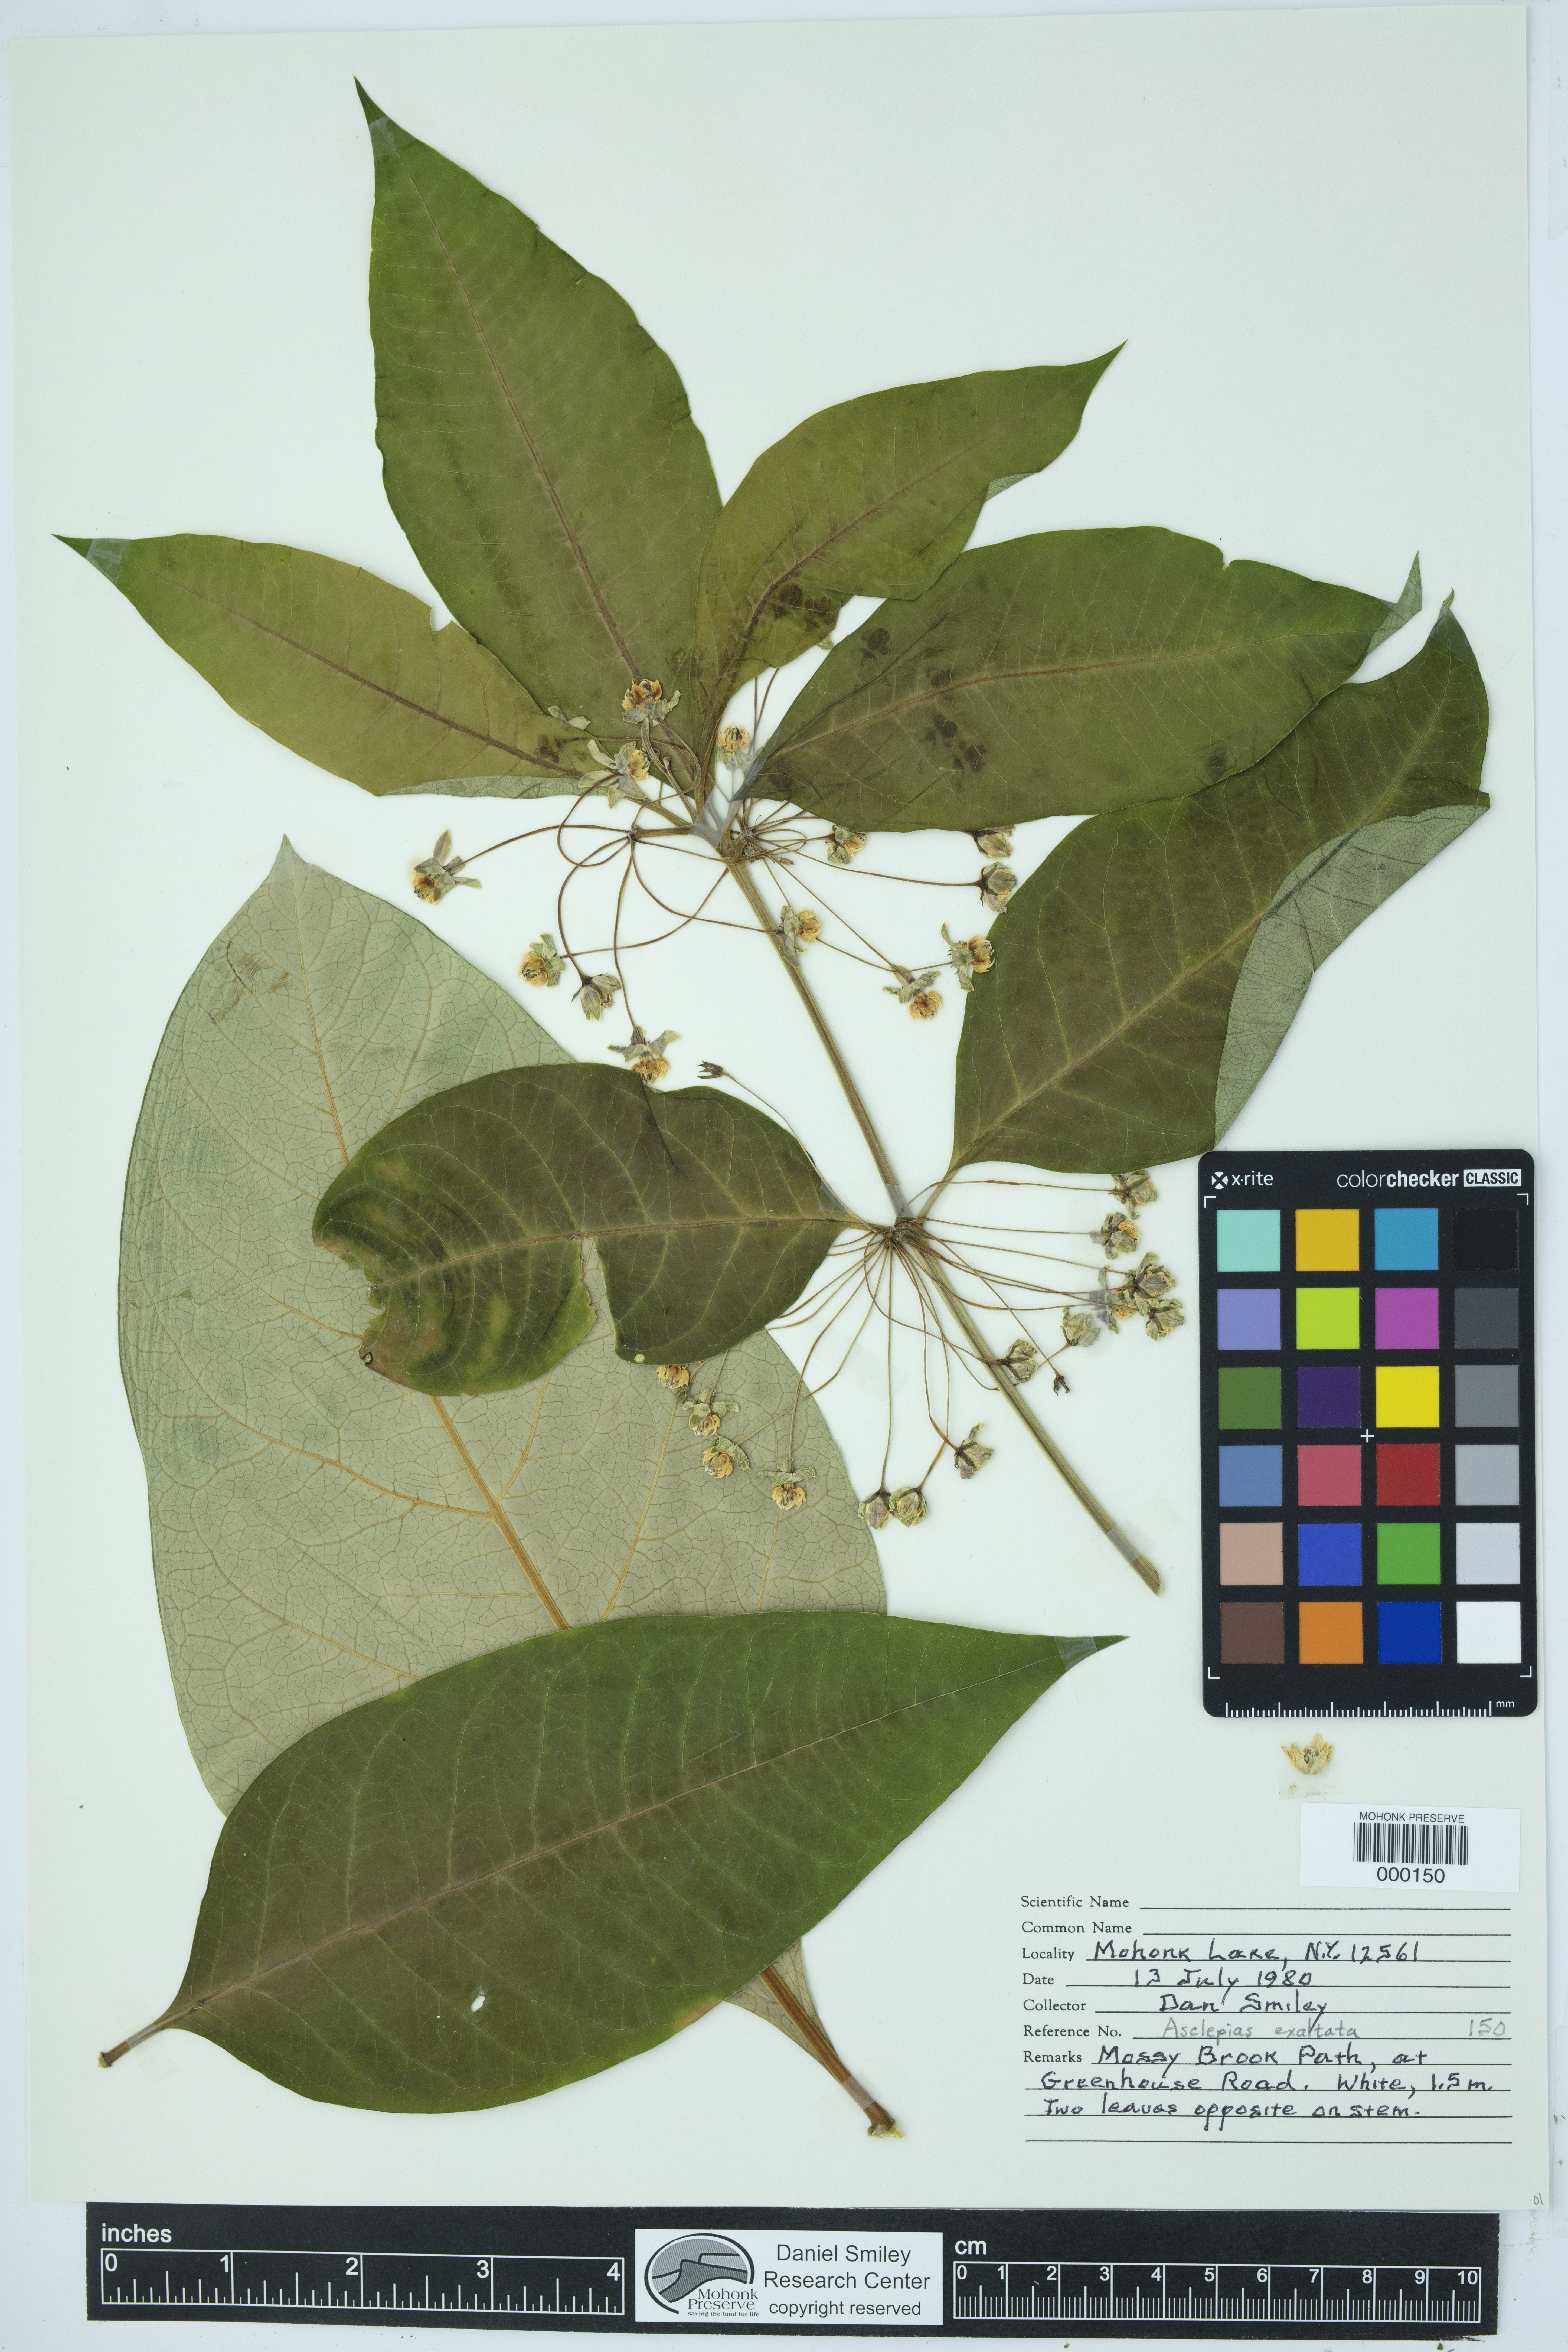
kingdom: Plantae
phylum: Tracheophyta
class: Magnoliopsida
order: Gentianales
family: Apocynaceae
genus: Asclepias
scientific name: Asclepias exaltata
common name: Poke milkweed
